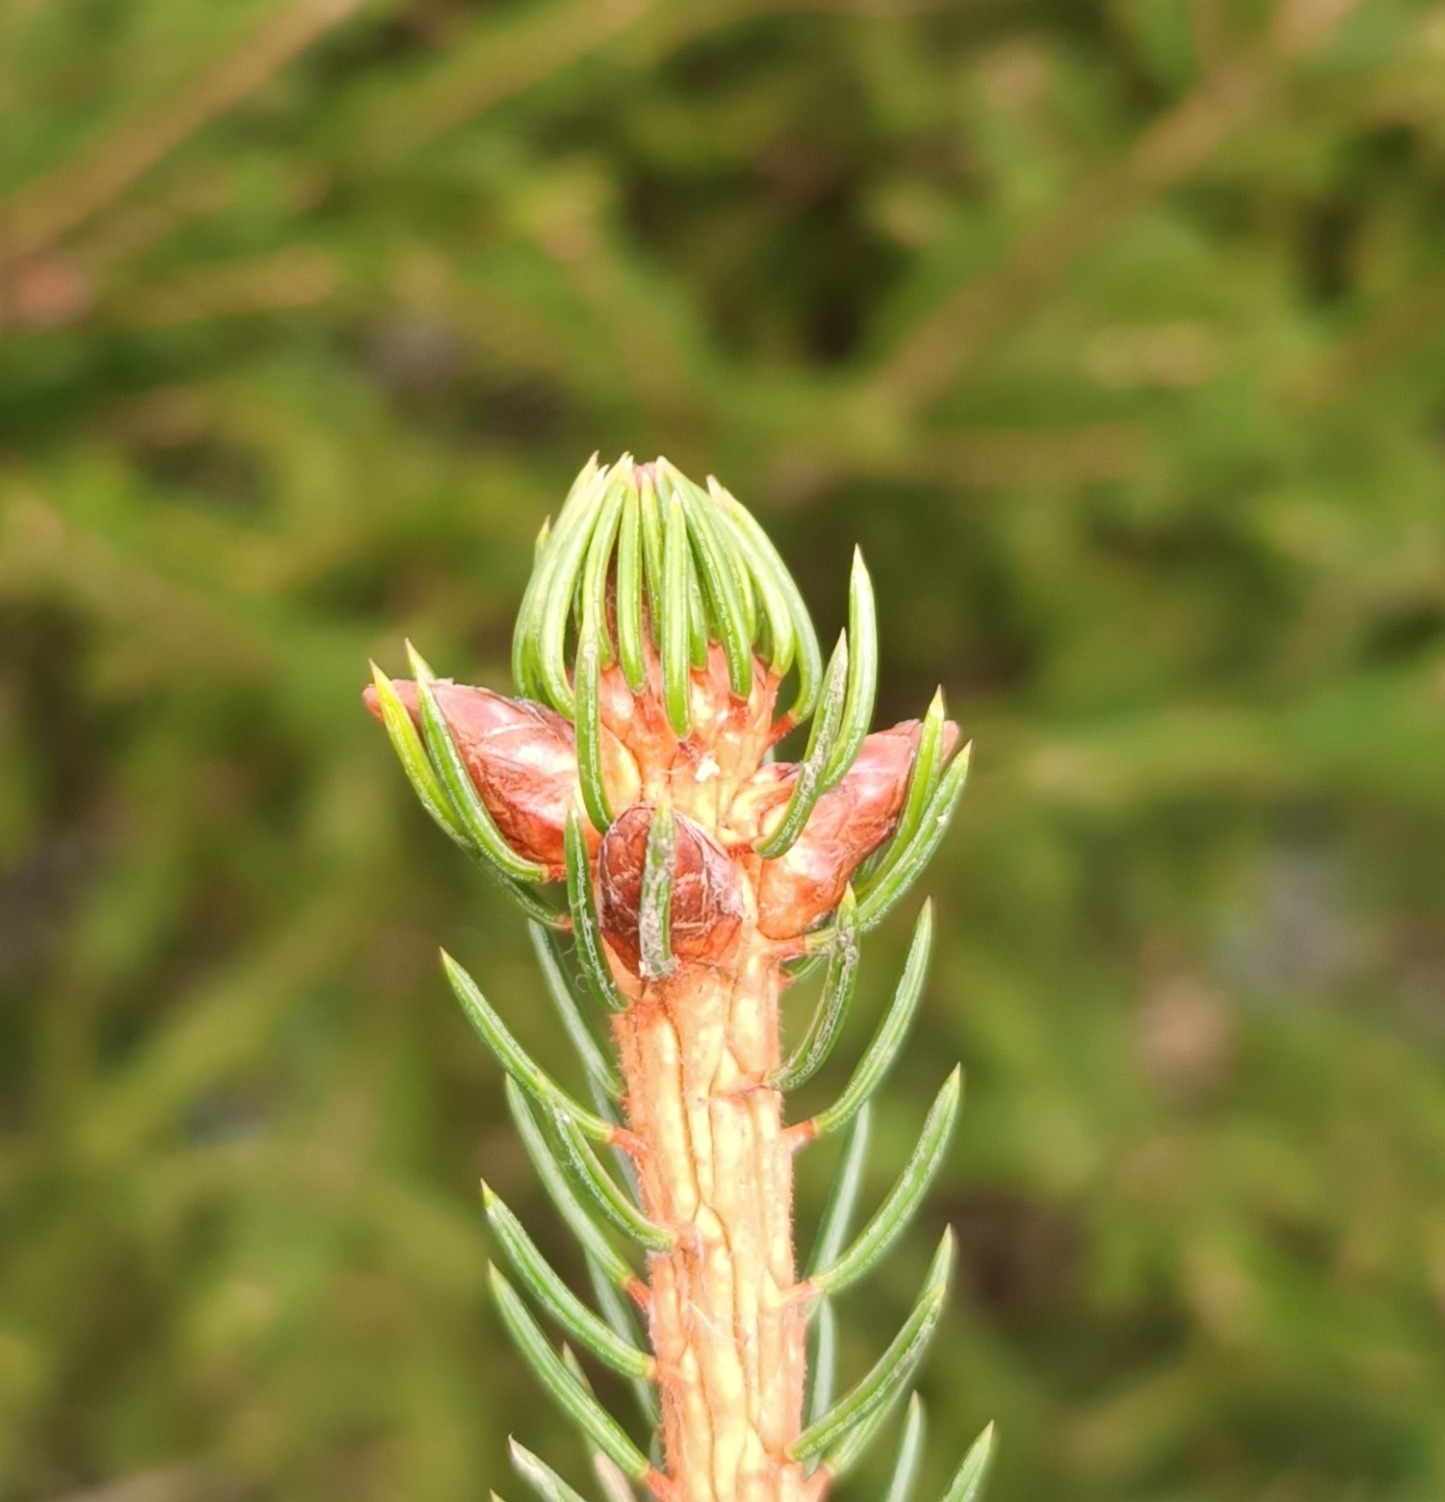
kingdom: Plantae
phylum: Tracheophyta
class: Pinopsida
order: Pinales
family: Pinaceae
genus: Picea
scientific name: Picea abies
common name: Rød-gran
